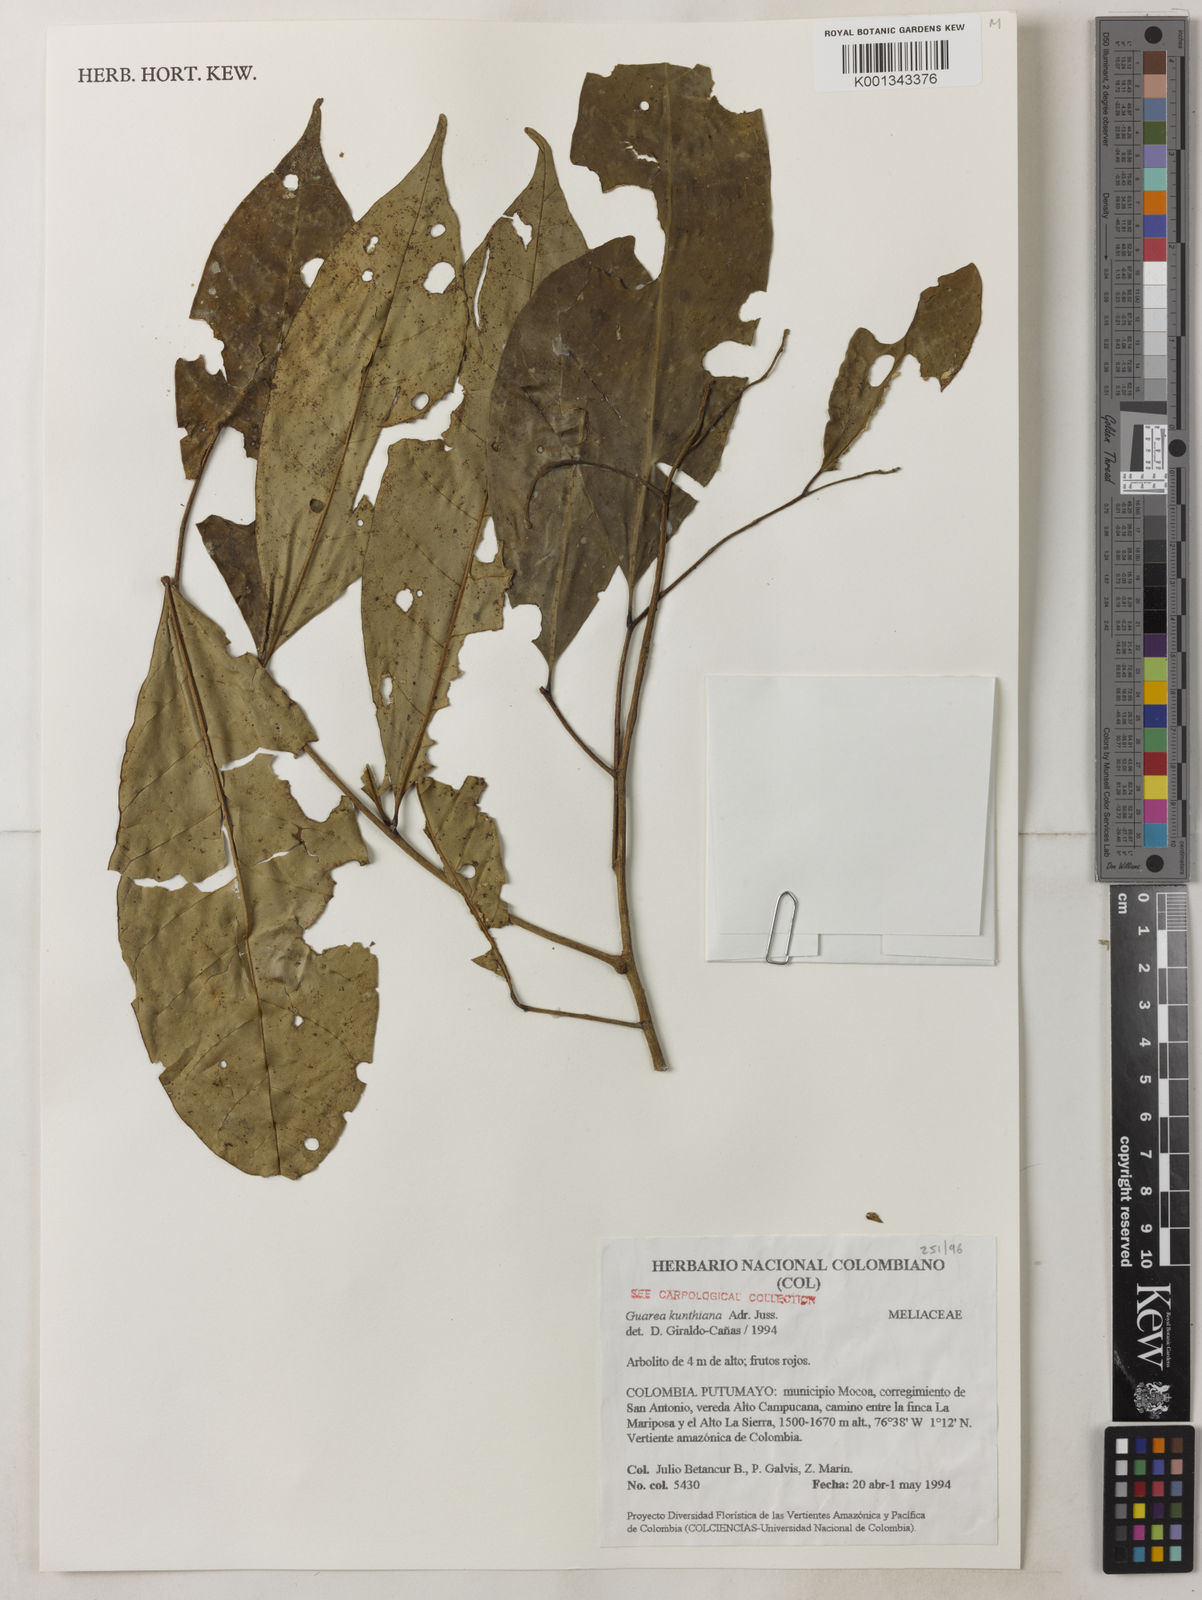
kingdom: Plantae
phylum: Tracheophyta
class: Magnoliopsida
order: Sapindales
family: Meliaceae
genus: Guarea
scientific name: Guarea kunthiana
